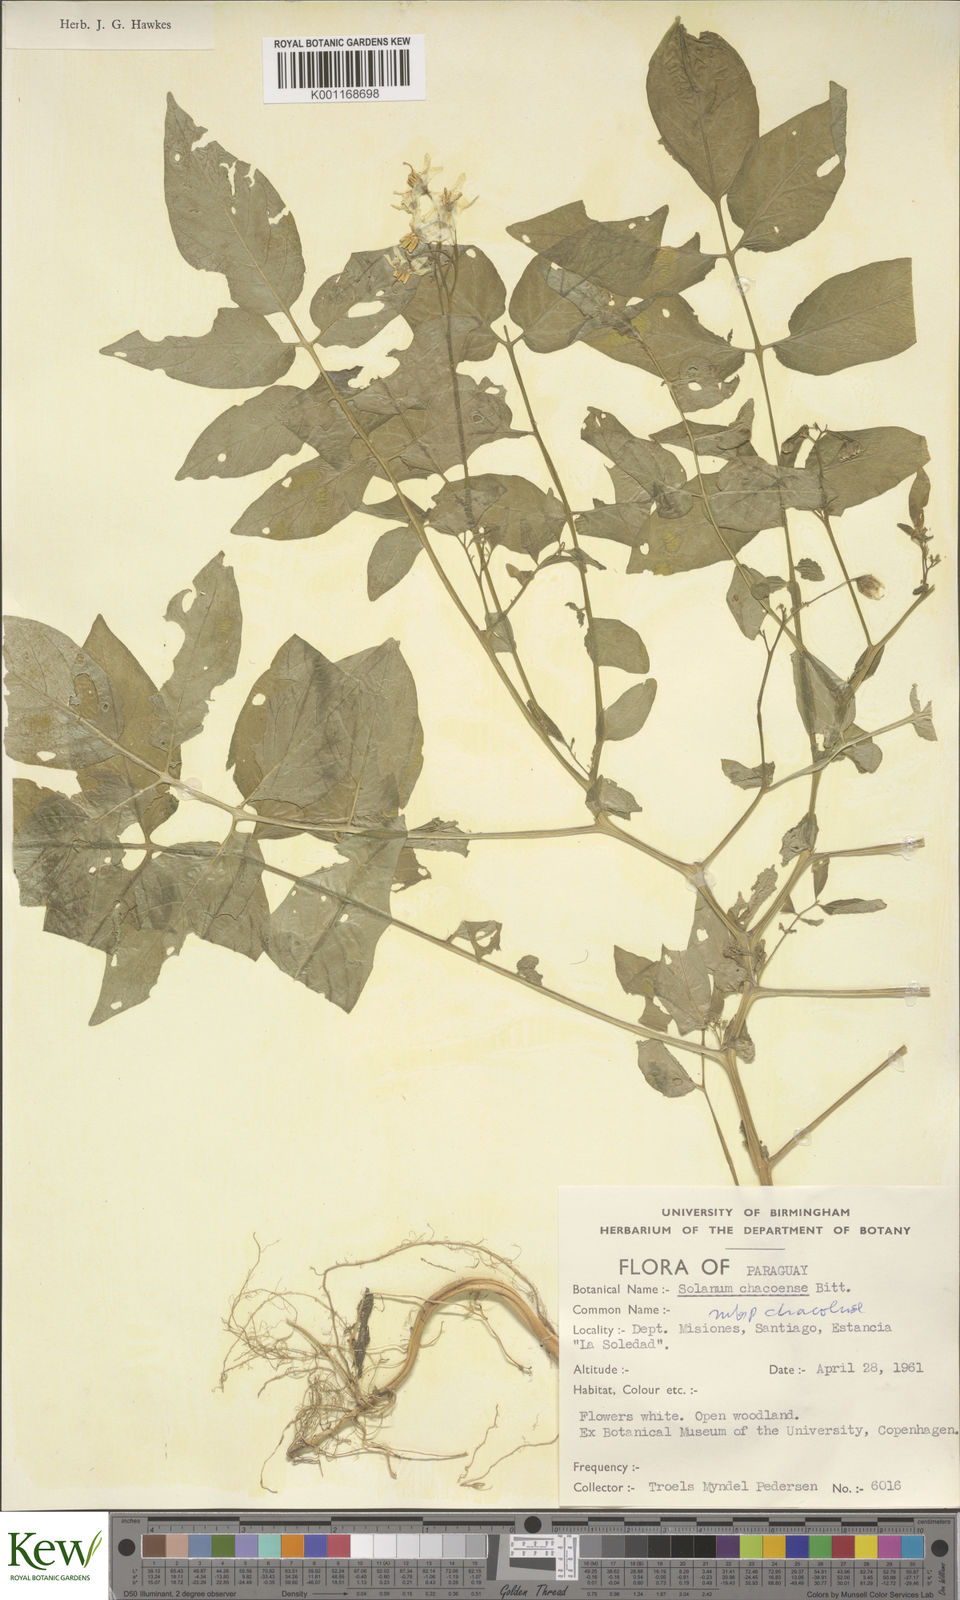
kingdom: Plantae
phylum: Tracheophyta
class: Magnoliopsida
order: Solanales
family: Solanaceae
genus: Solanum
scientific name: Solanum chacoense
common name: Chaco potato
